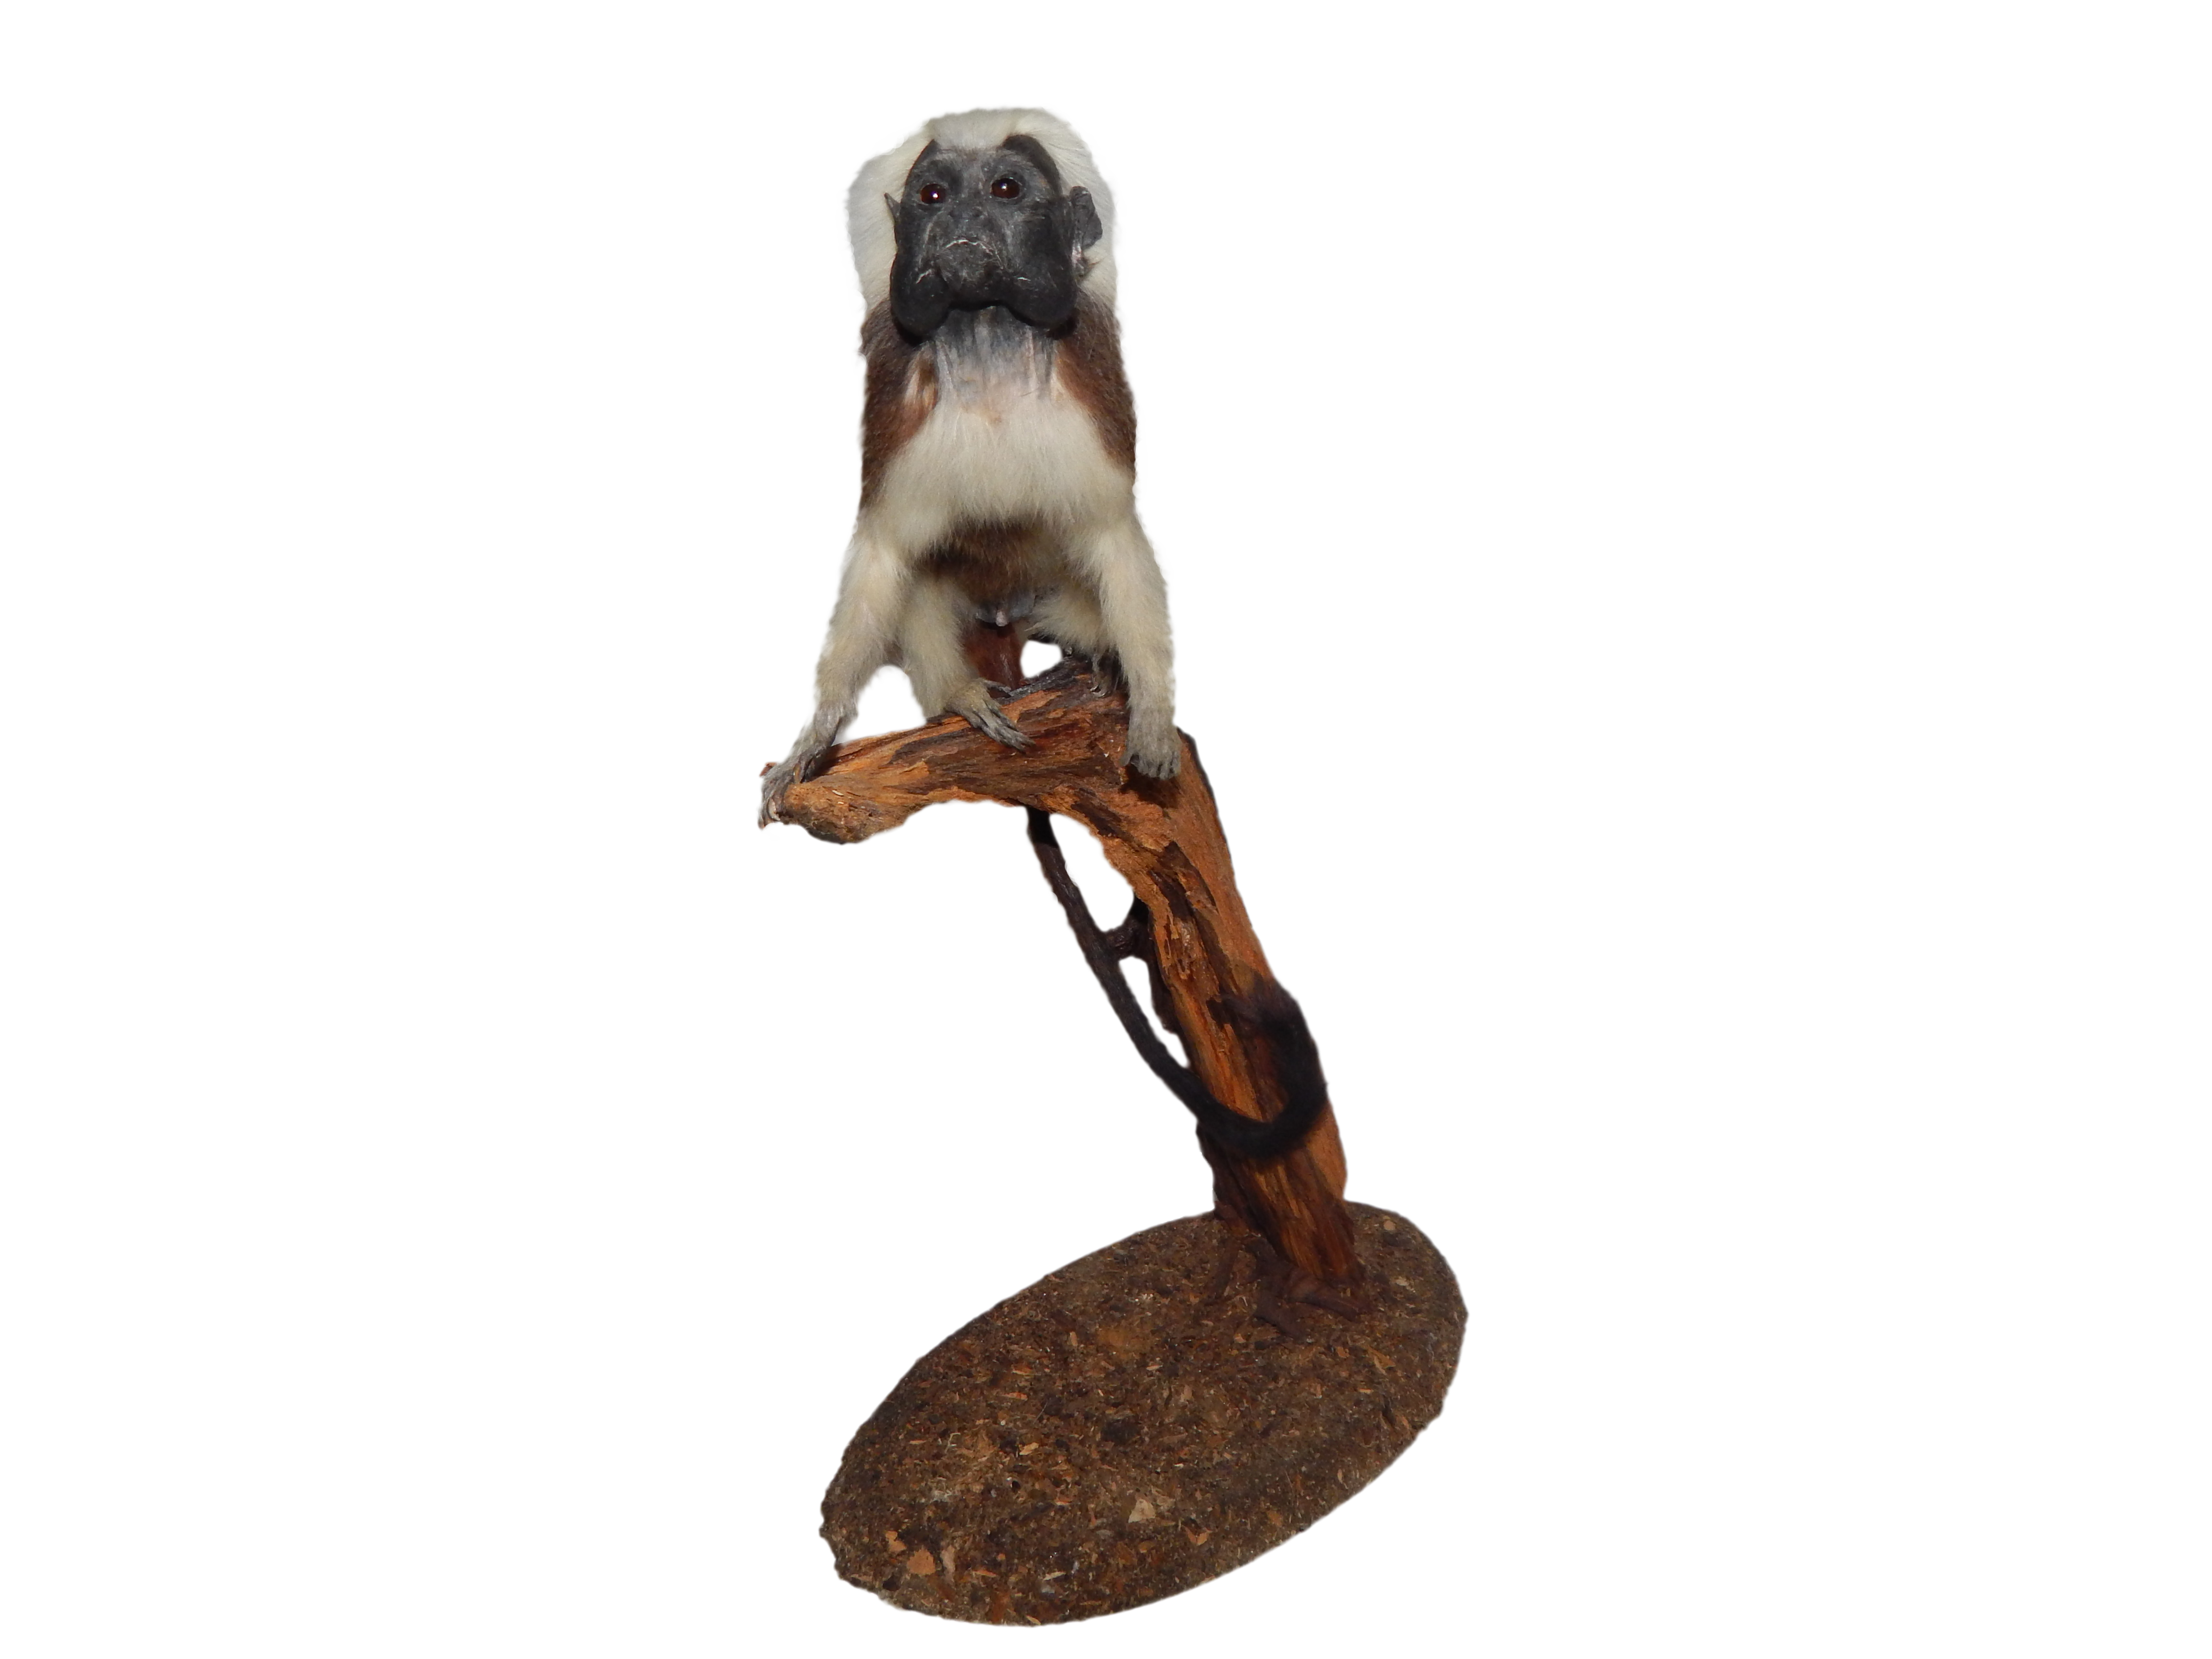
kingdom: Animalia
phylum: Chordata
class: Mammalia
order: Primates
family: Callitrichidae
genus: Saguinus
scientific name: Saguinus oedipus
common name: Cottontop tamarin
